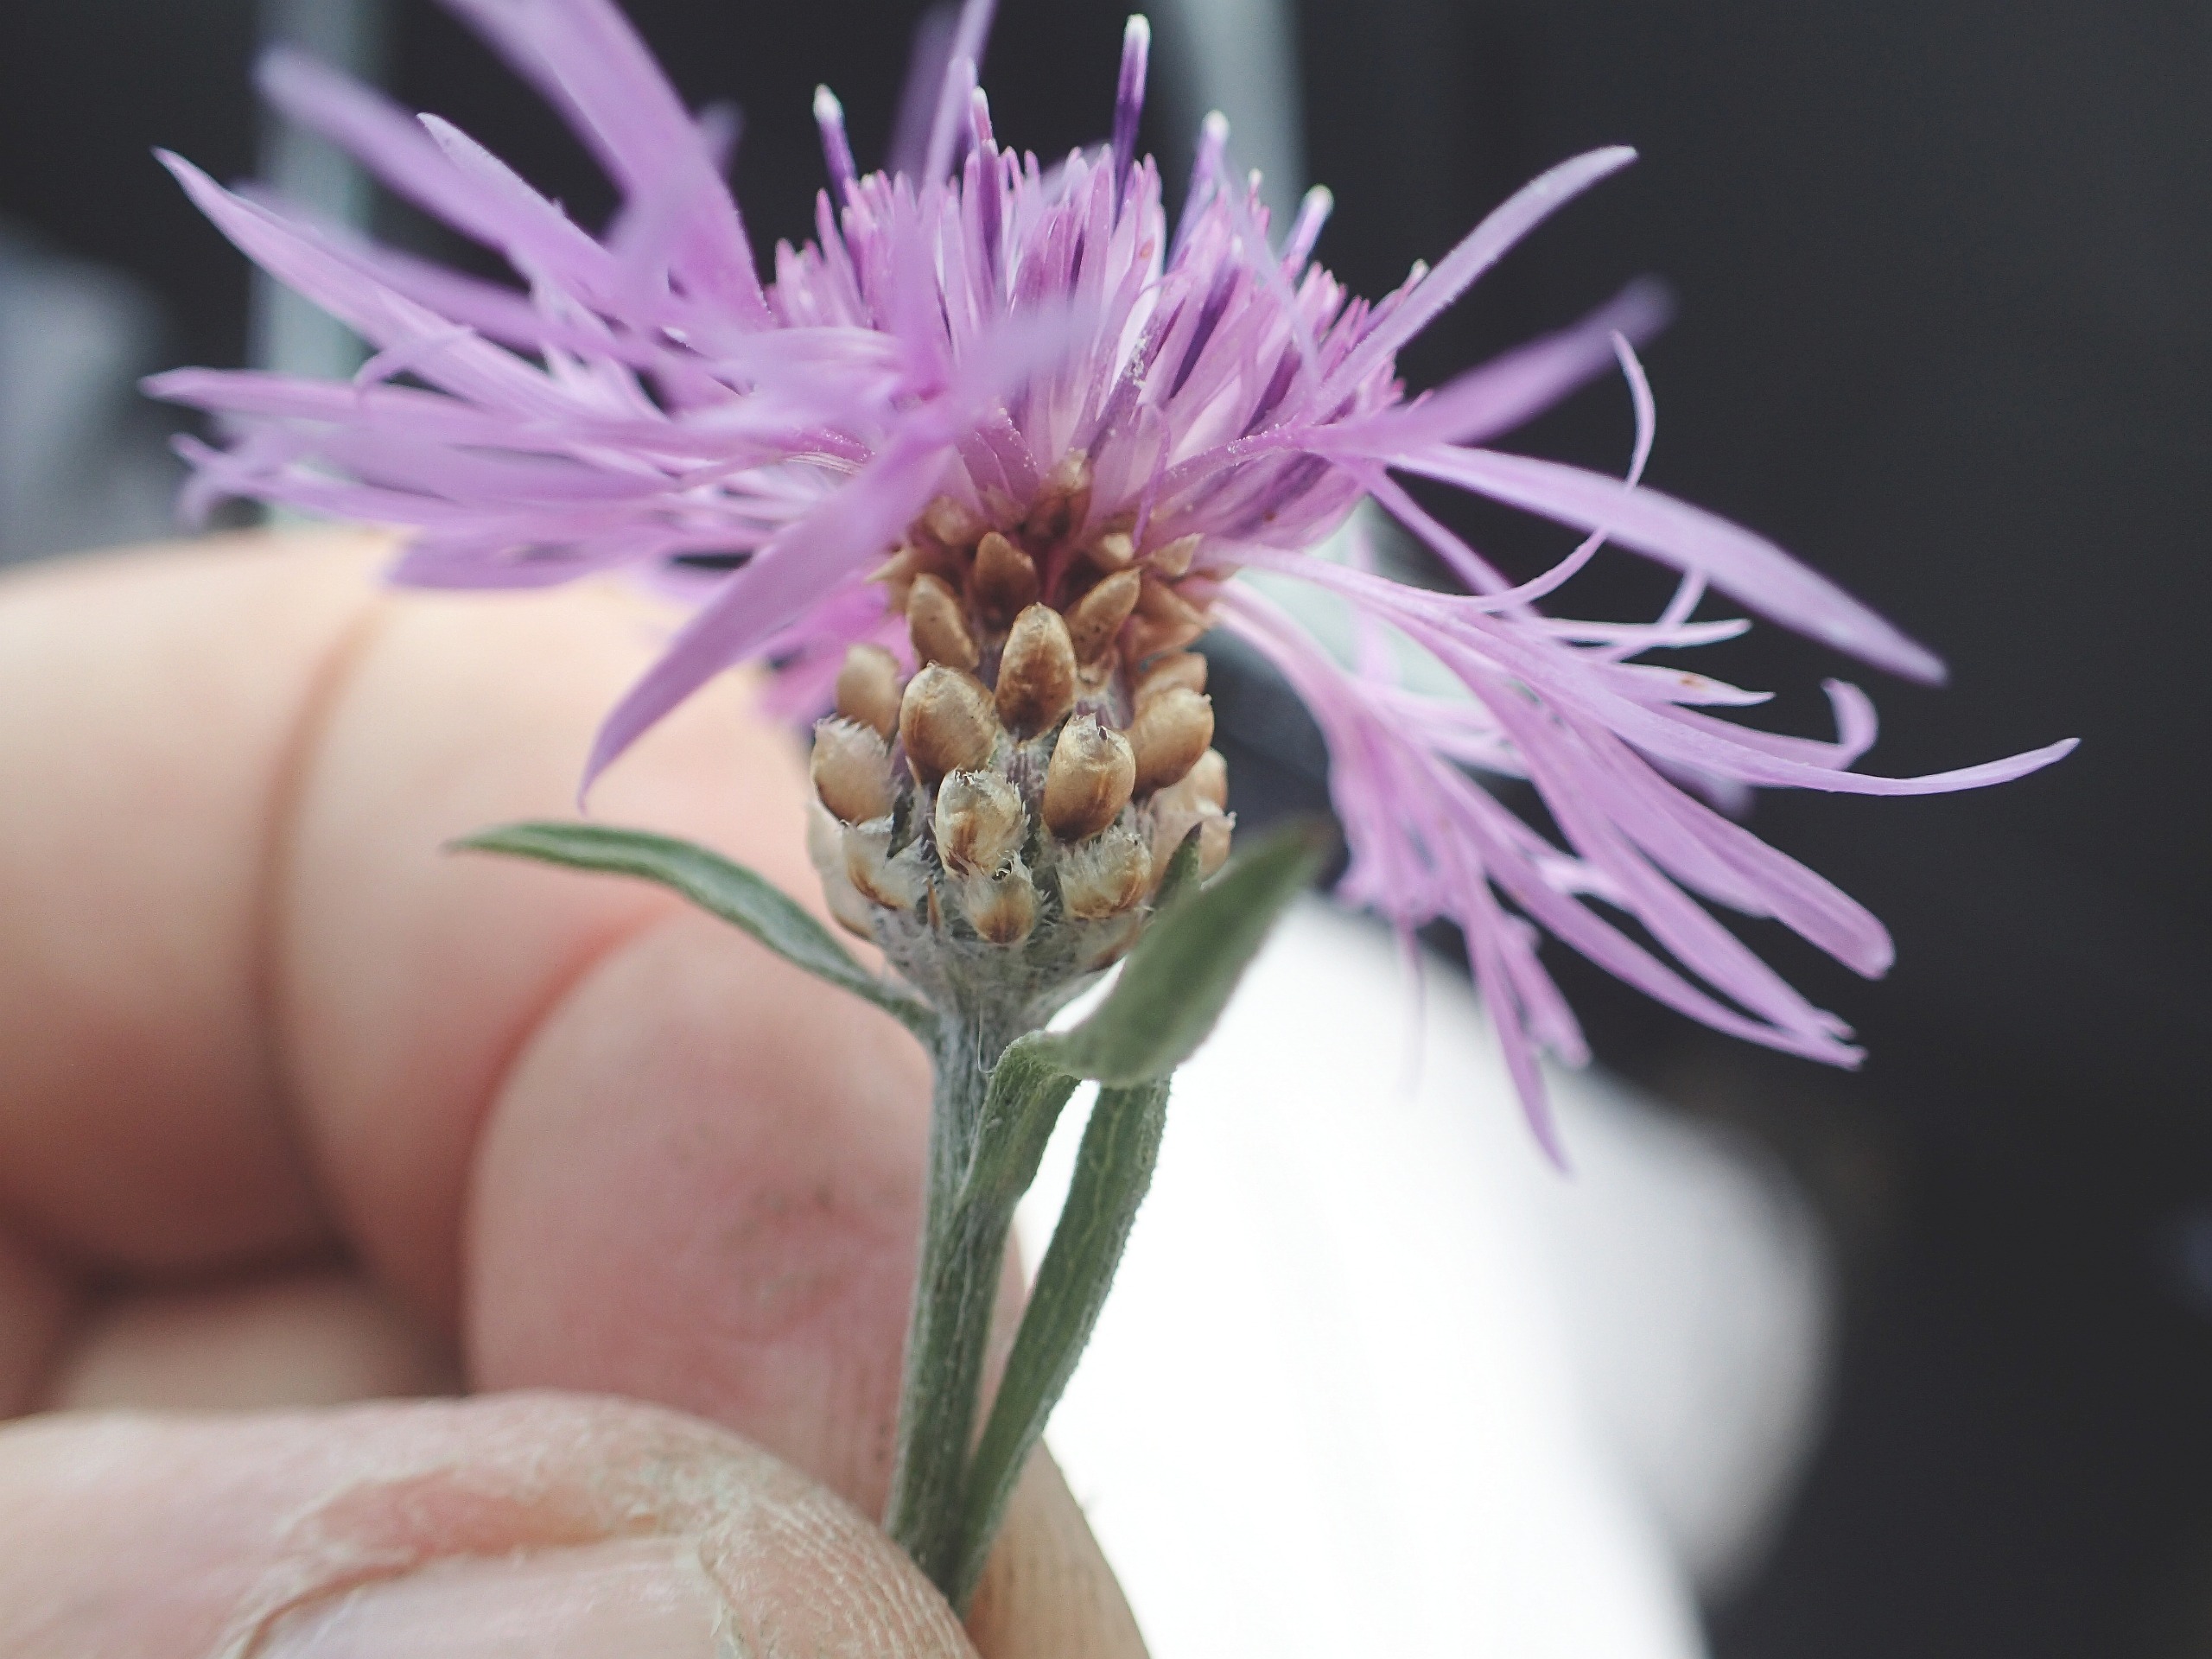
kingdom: Plantae
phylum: Tracheophyta
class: Magnoliopsida
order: Asterales
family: Asteraceae
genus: Centaurea
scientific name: Centaurea jacea
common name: Almindelig knopurt
